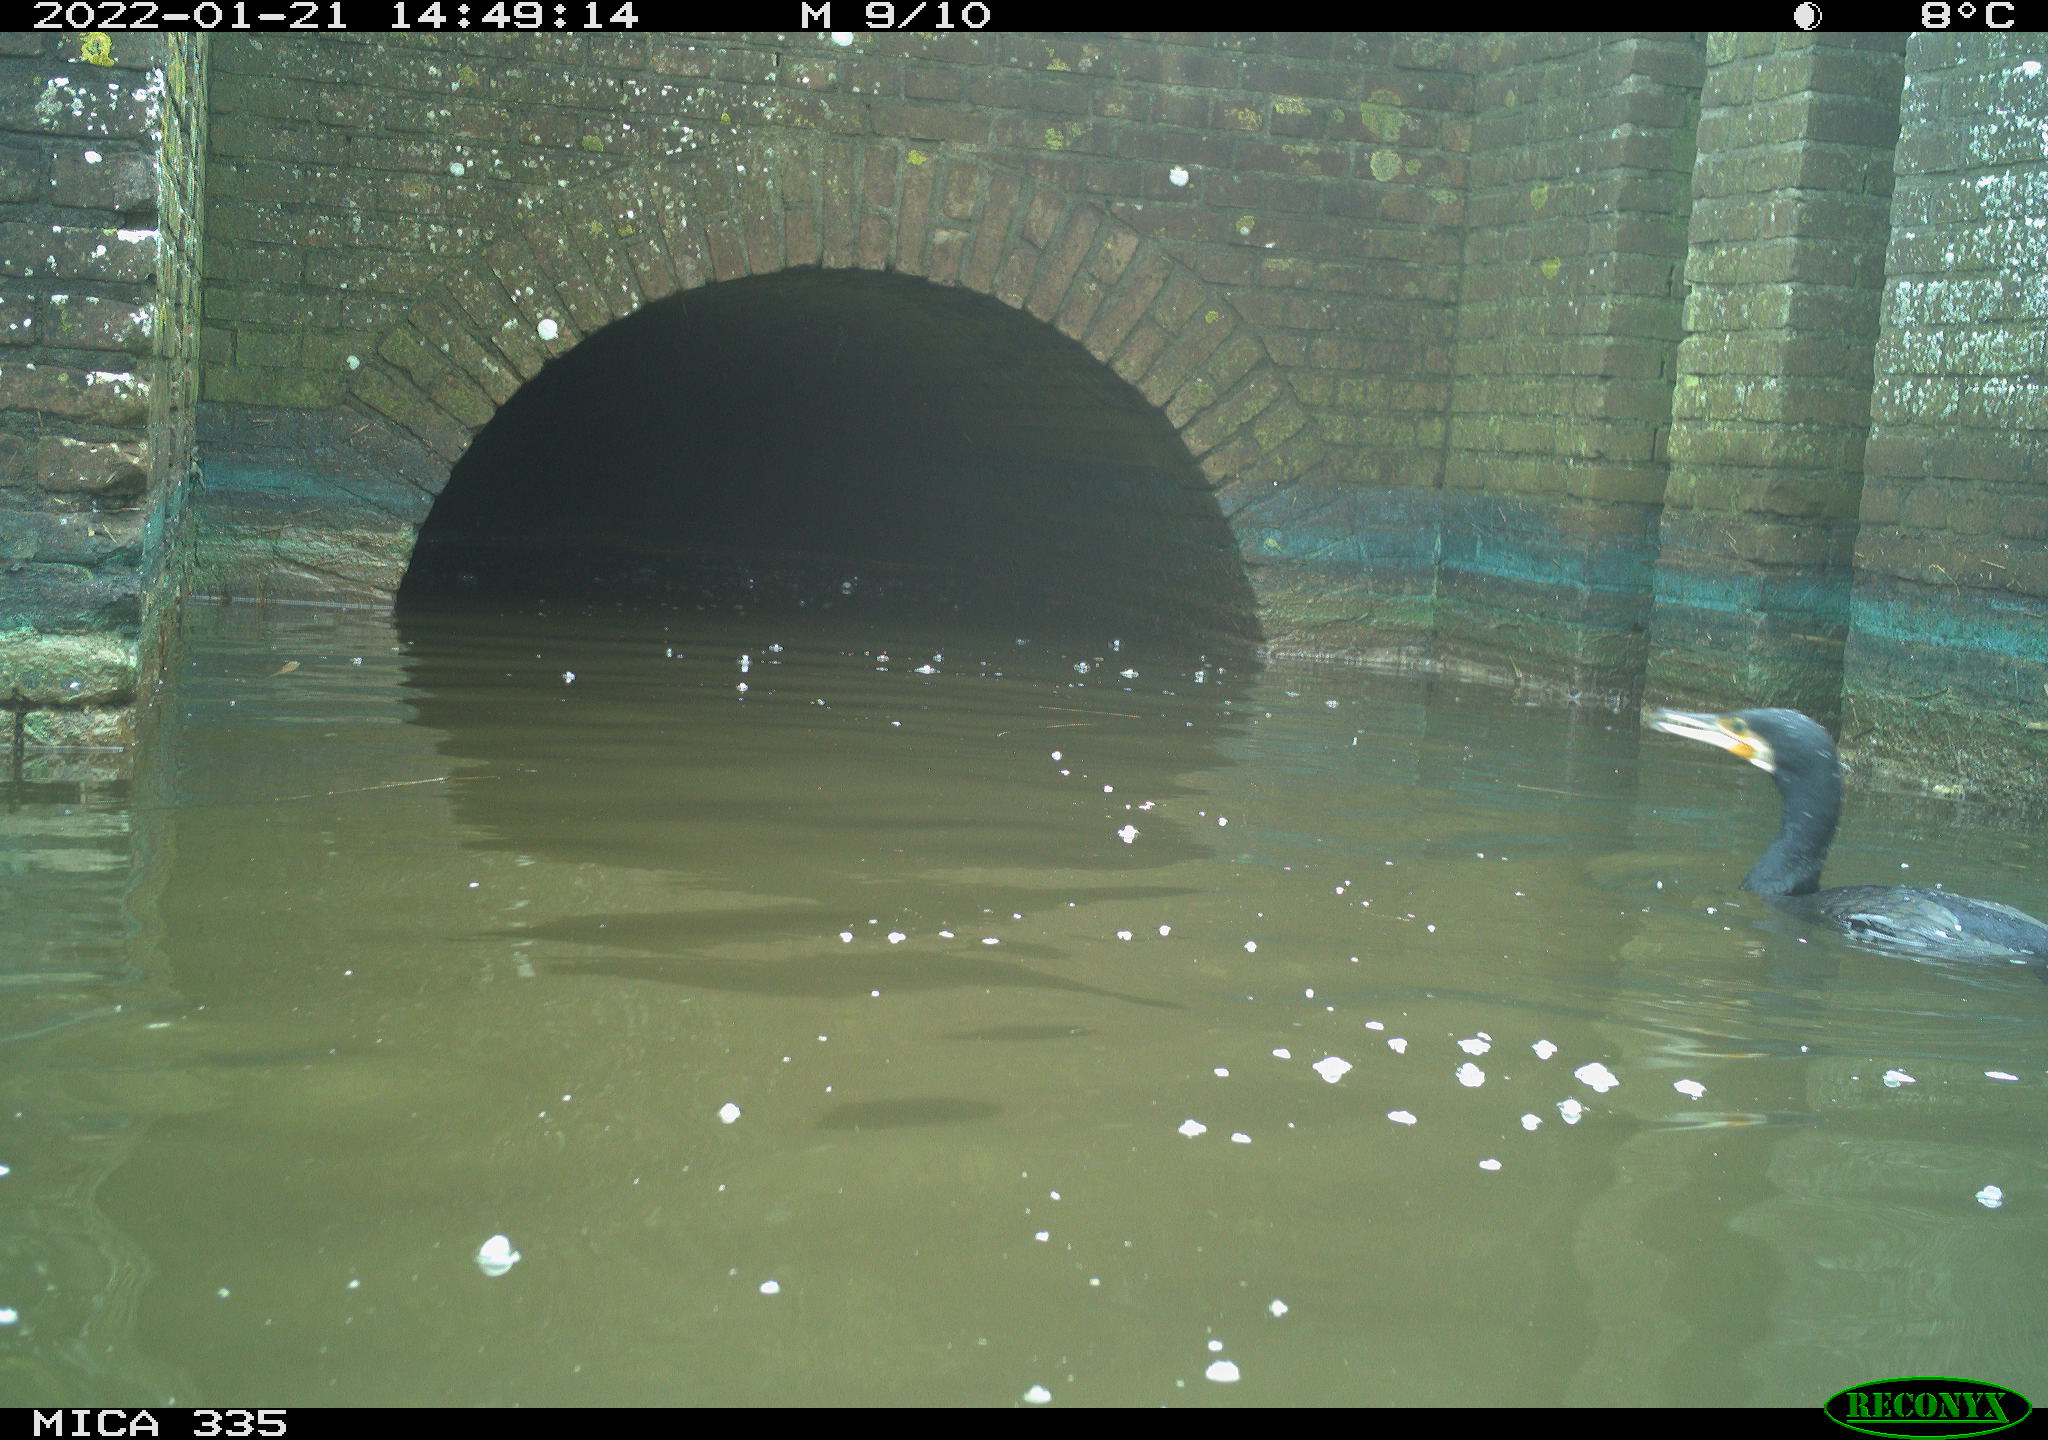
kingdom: Animalia
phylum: Chordata
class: Aves
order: Suliformes
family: Phalacrocoracidae
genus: Phalacrocorax
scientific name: Phalacrocorax carbo
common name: Great cormorant
